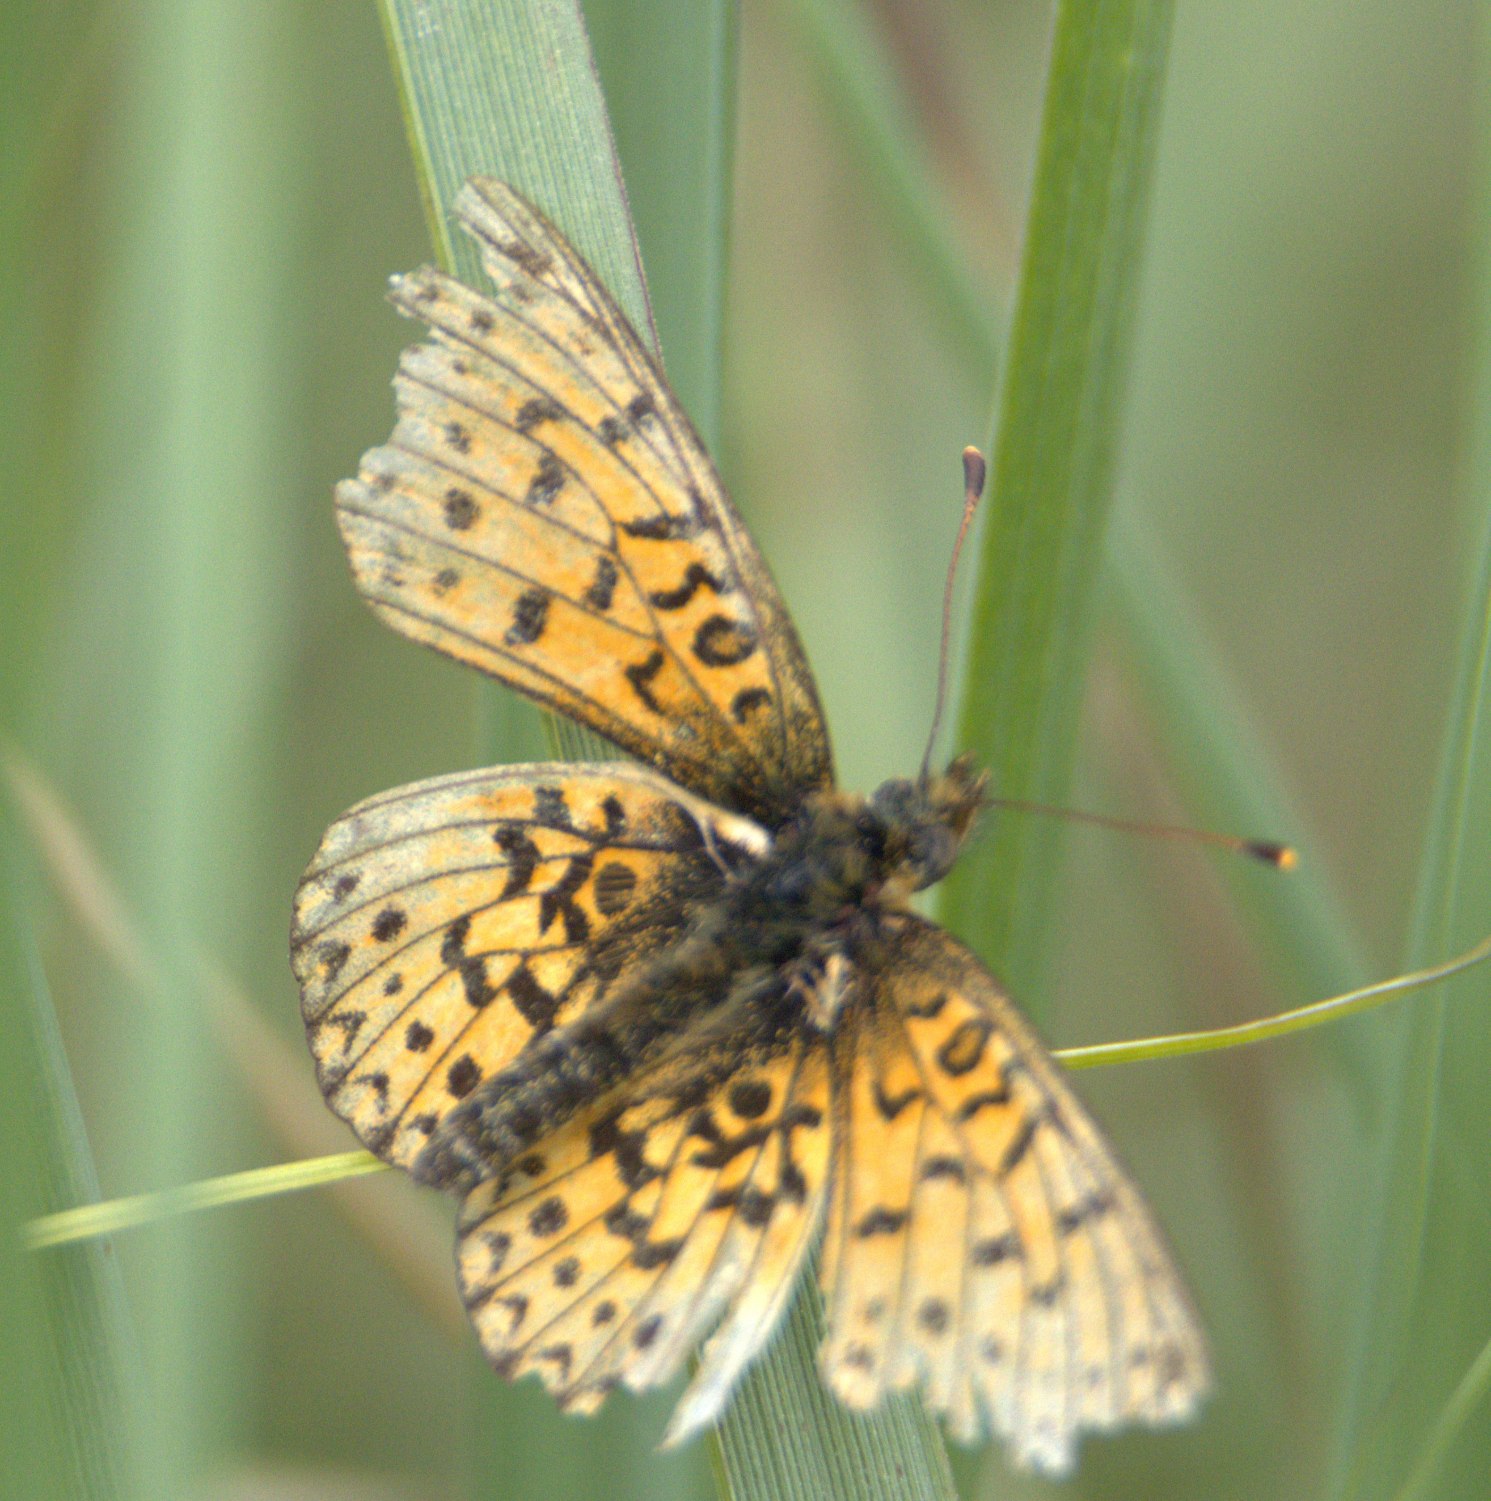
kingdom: Animalia
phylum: Arthropoda
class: Insecta
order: Lepidoptera
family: Nymphalidae
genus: Boloria
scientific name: Boloria selene
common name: Brunlig perlemorsommerfugl
